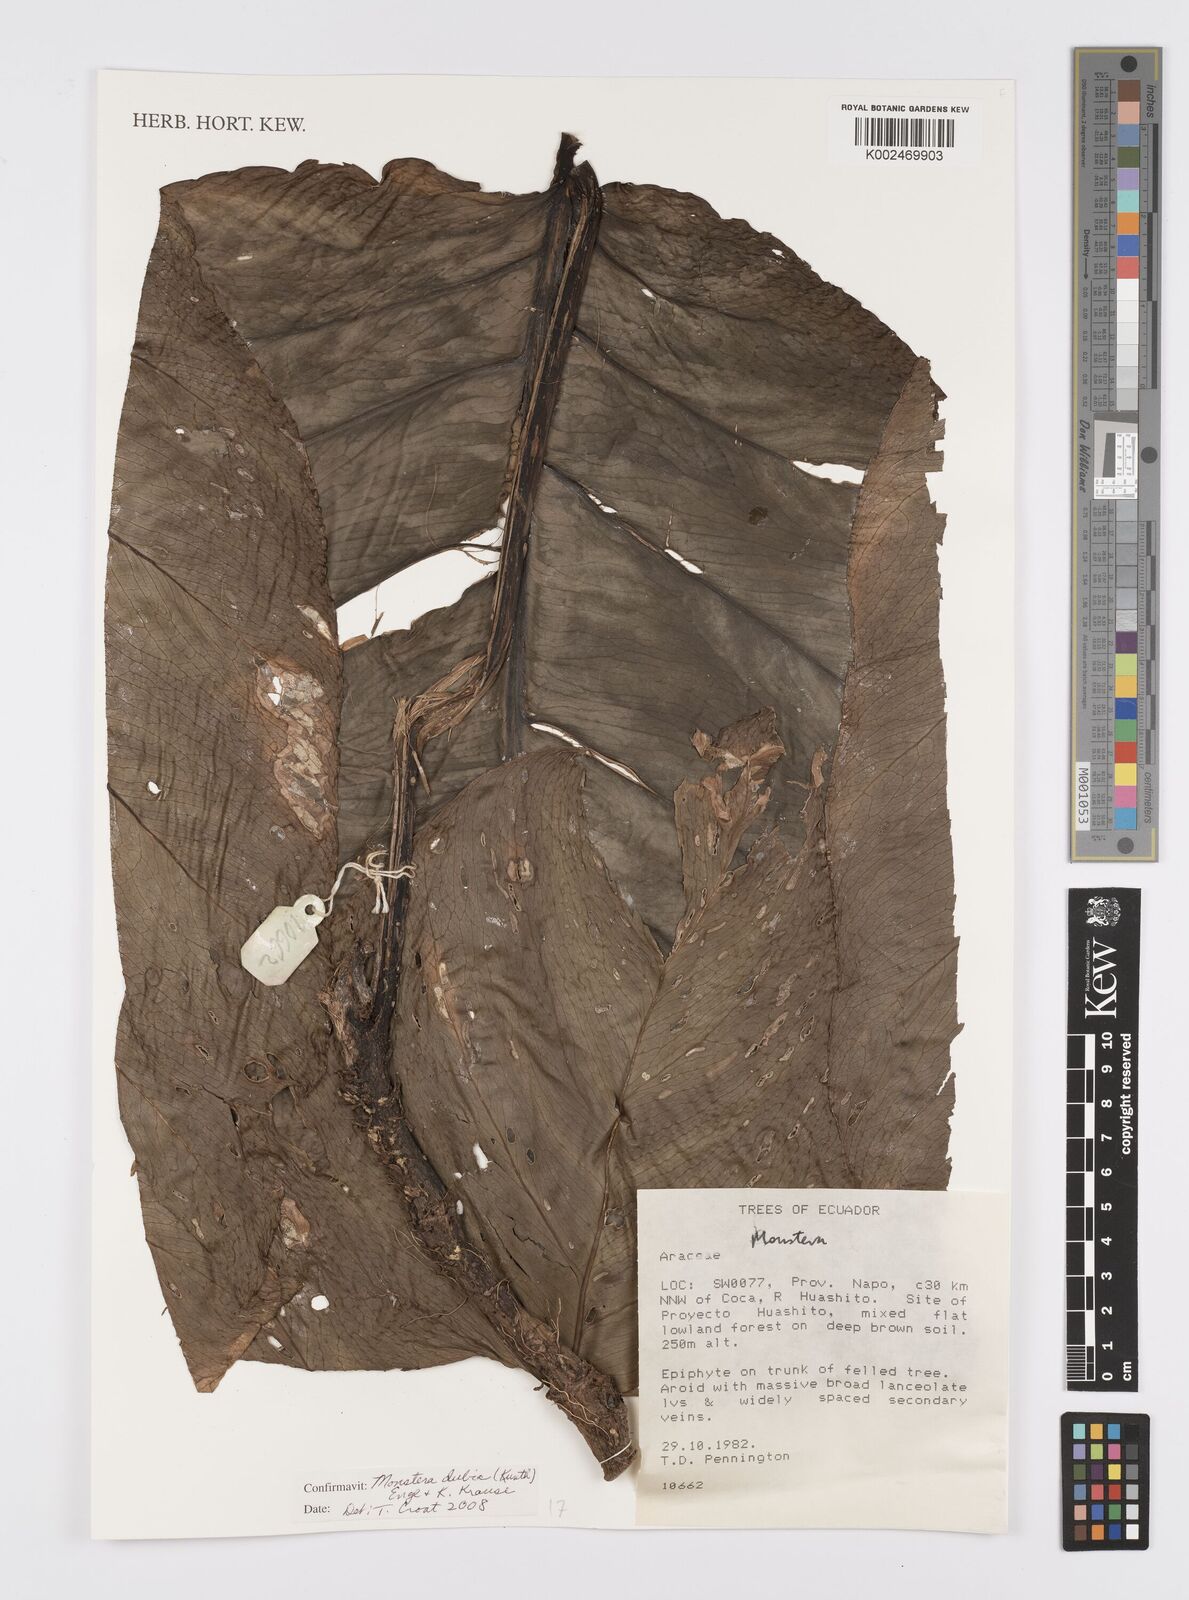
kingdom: Plantae
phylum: Tracheophyta
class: Liliopsida
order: Alismatales
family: Araceae
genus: Monstera
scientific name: Monstera dubia
